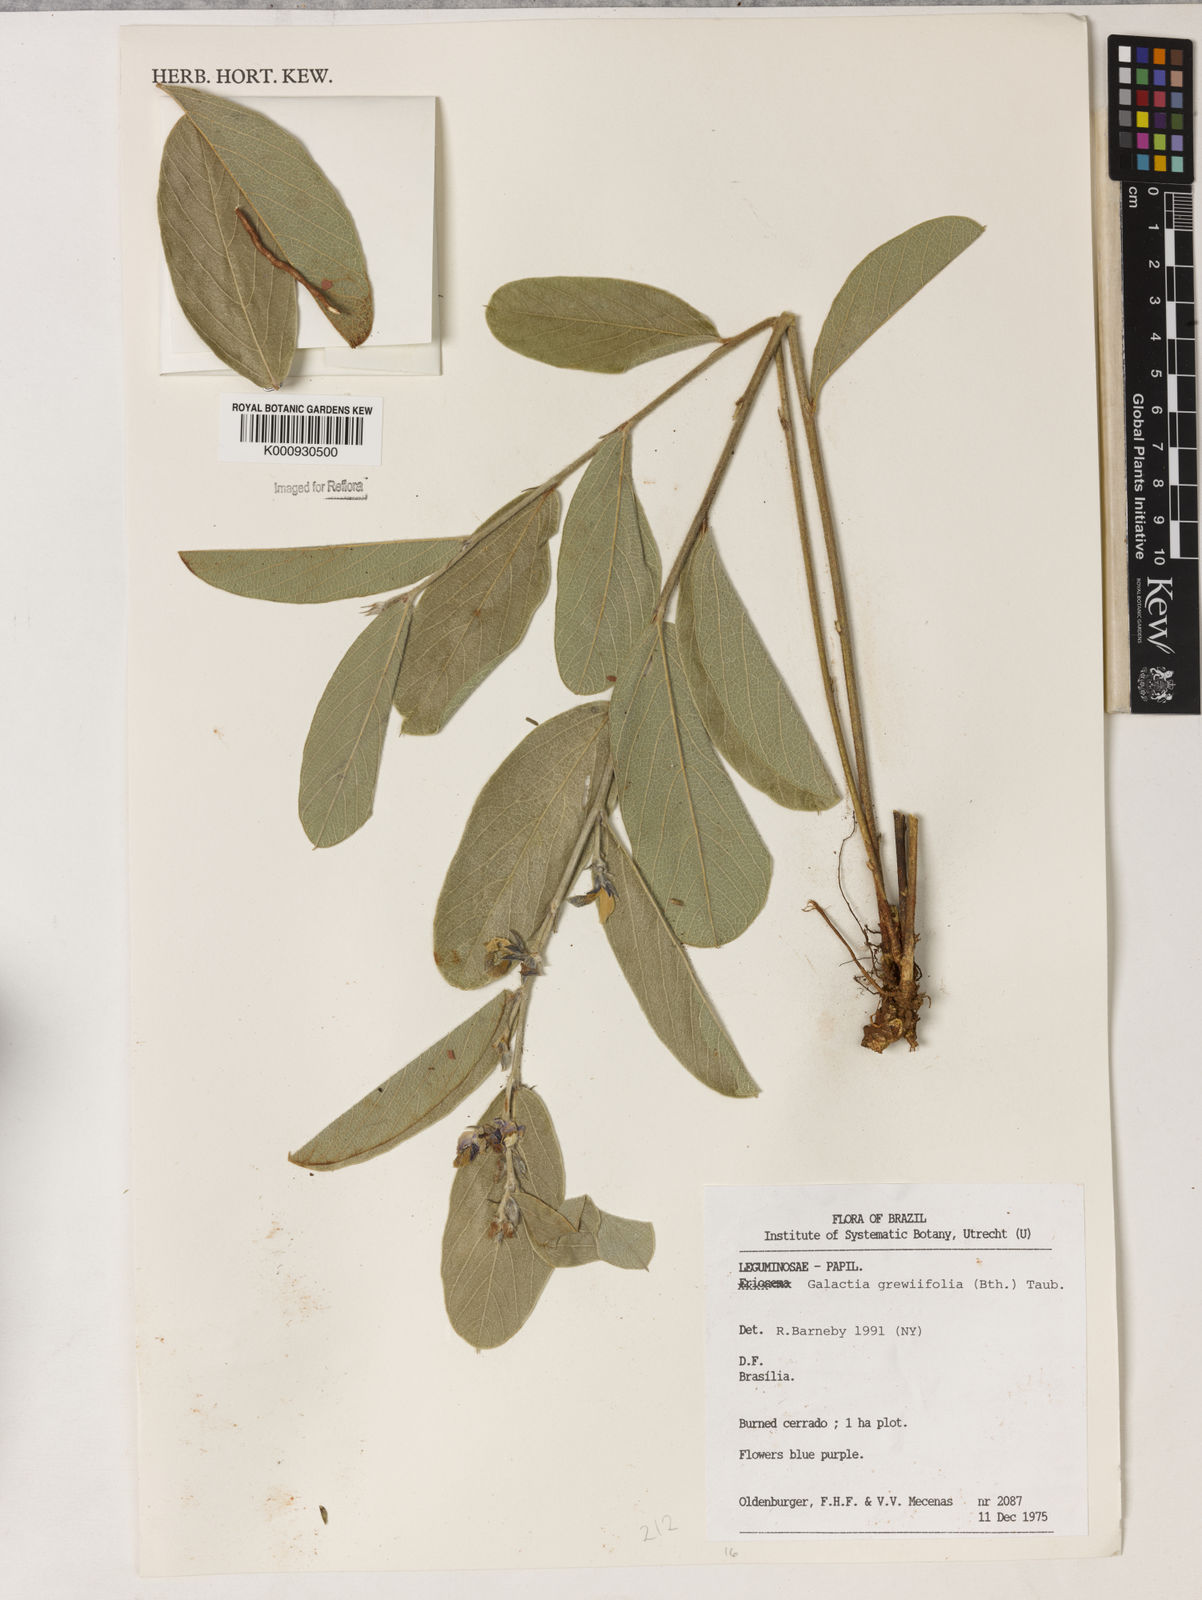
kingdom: Plantae
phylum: Tracheophyta
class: Magnoliopsida
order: Fabales
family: Fabaceae
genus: Galactia
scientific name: Galactia
